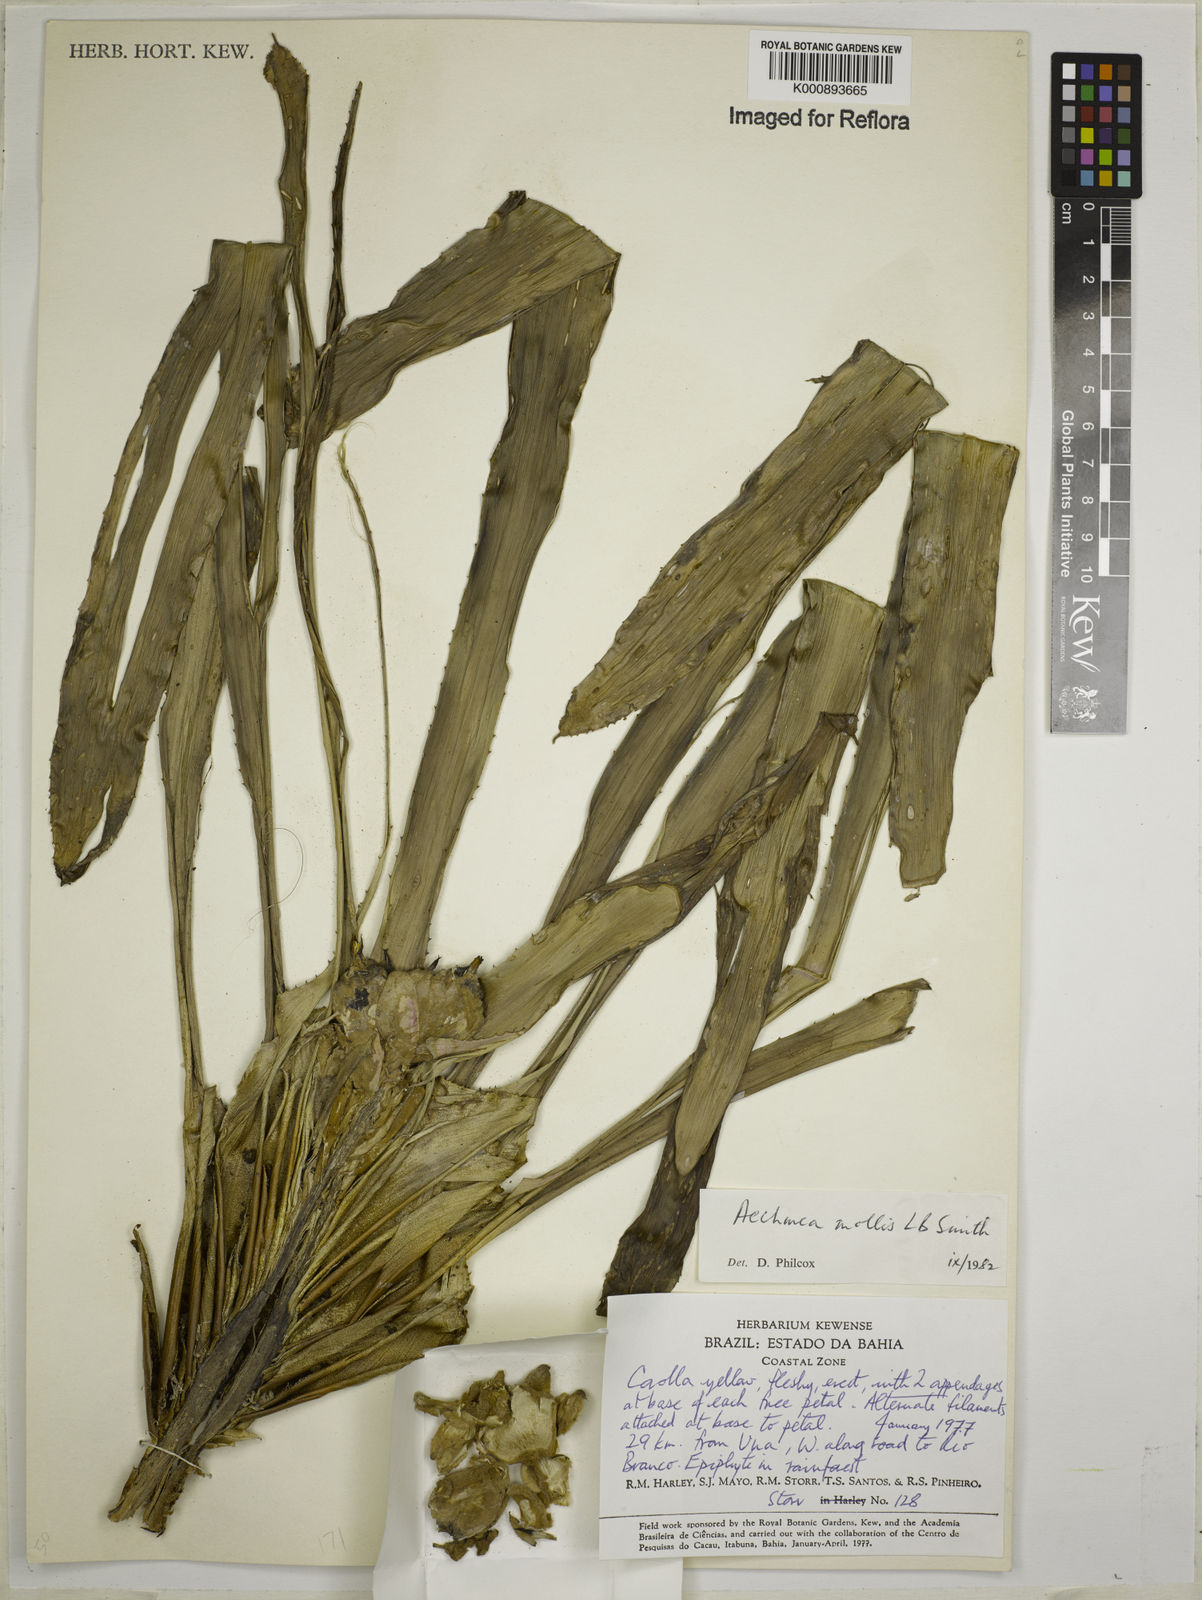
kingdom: Plantae
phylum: Tracheophyta
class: Liliopsida
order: Poales
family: Bromeliaceae
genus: Aechmea
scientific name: Aechmea mollis
